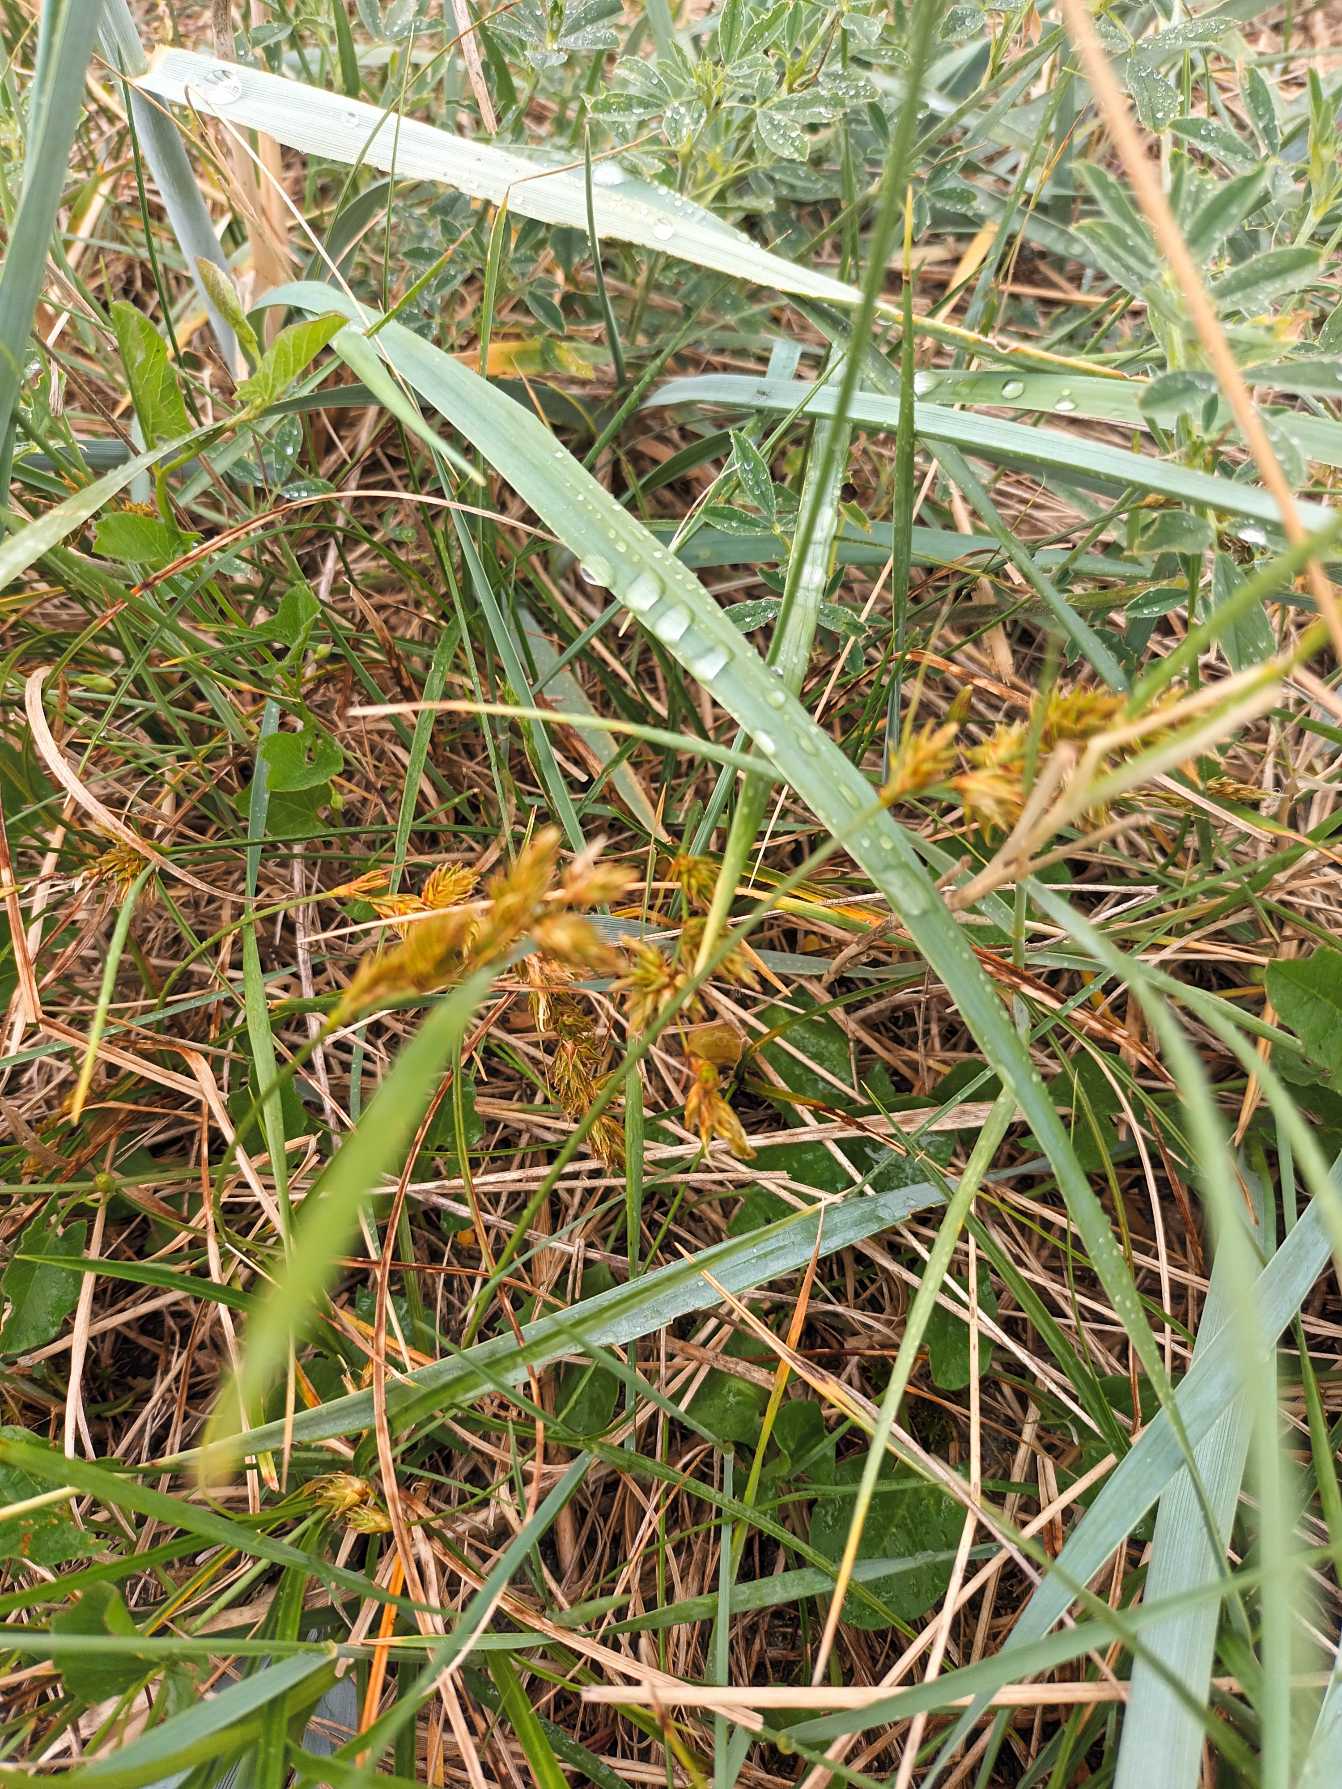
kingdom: Plantae
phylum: Tracheophyta
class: Liliopsida
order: Poales
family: Cyperaceae
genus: Carex
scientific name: Carex arenaria
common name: Sand-star
